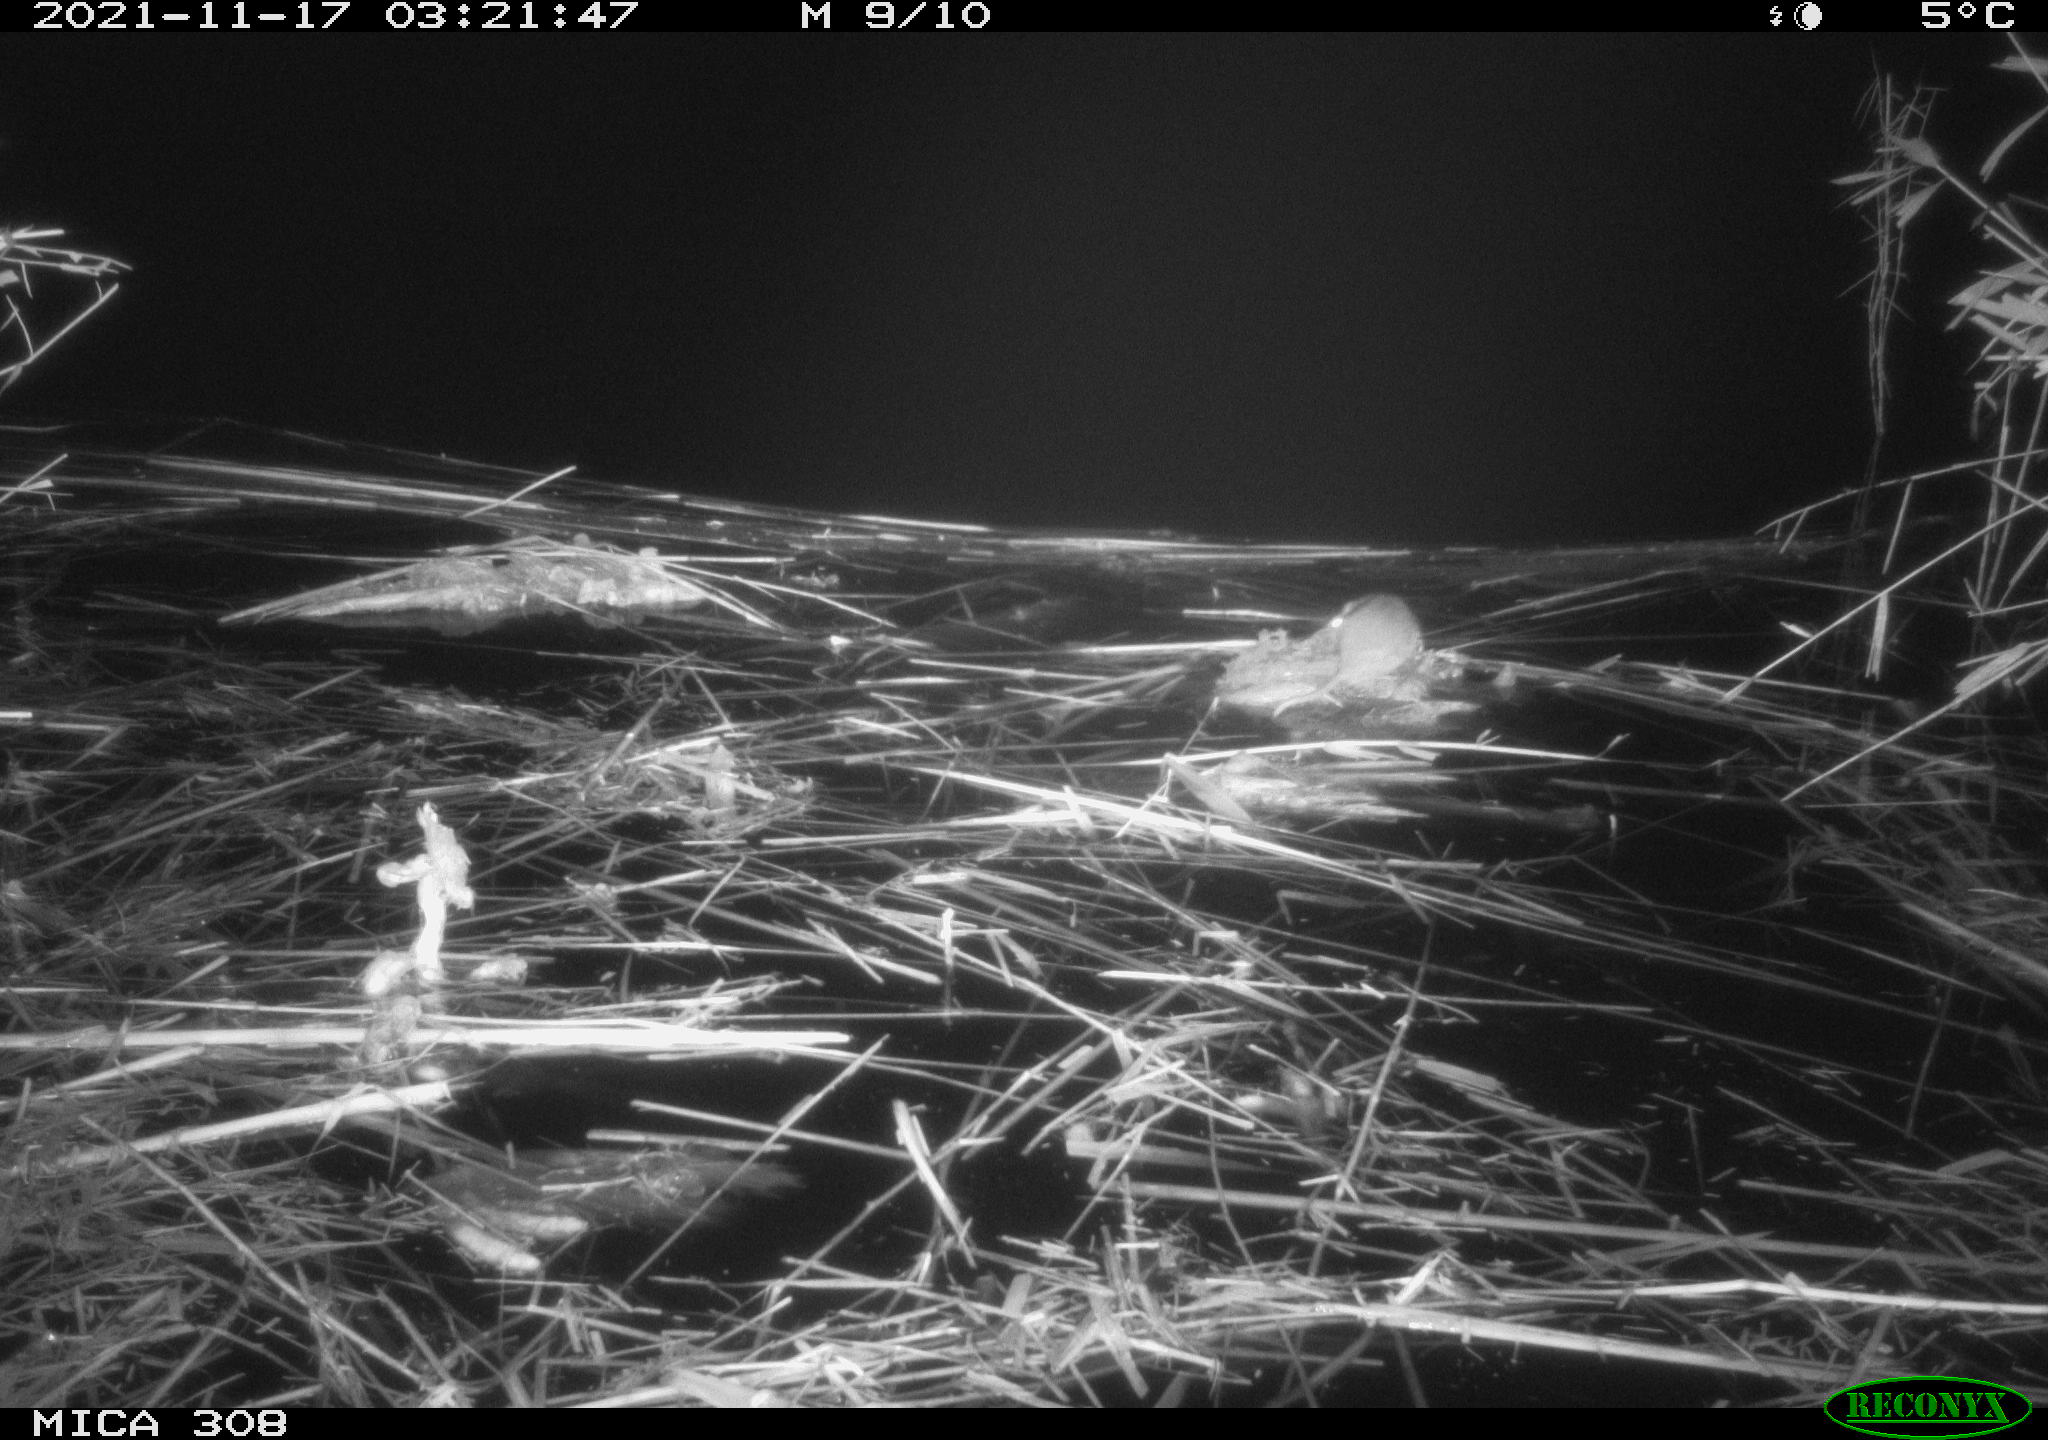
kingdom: Animalia
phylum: Chordata
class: Mammalia
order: Rodentia
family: Muridae
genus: Rattus
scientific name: Rattus norvegicus
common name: Brown rat
